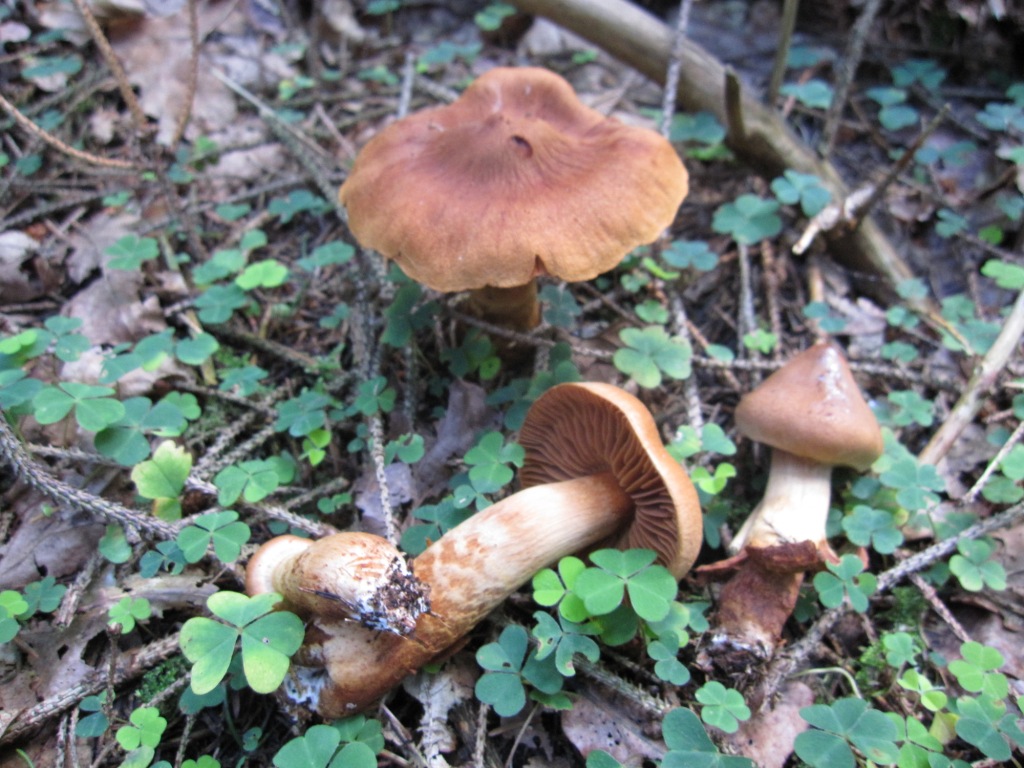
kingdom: Fungi
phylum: Basidiomycota
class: Agaricomycetes
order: Agaricales
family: Cortinariaceae
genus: Cortinarius
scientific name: Cortinarius rubellus
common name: puklet gift-slørhat
